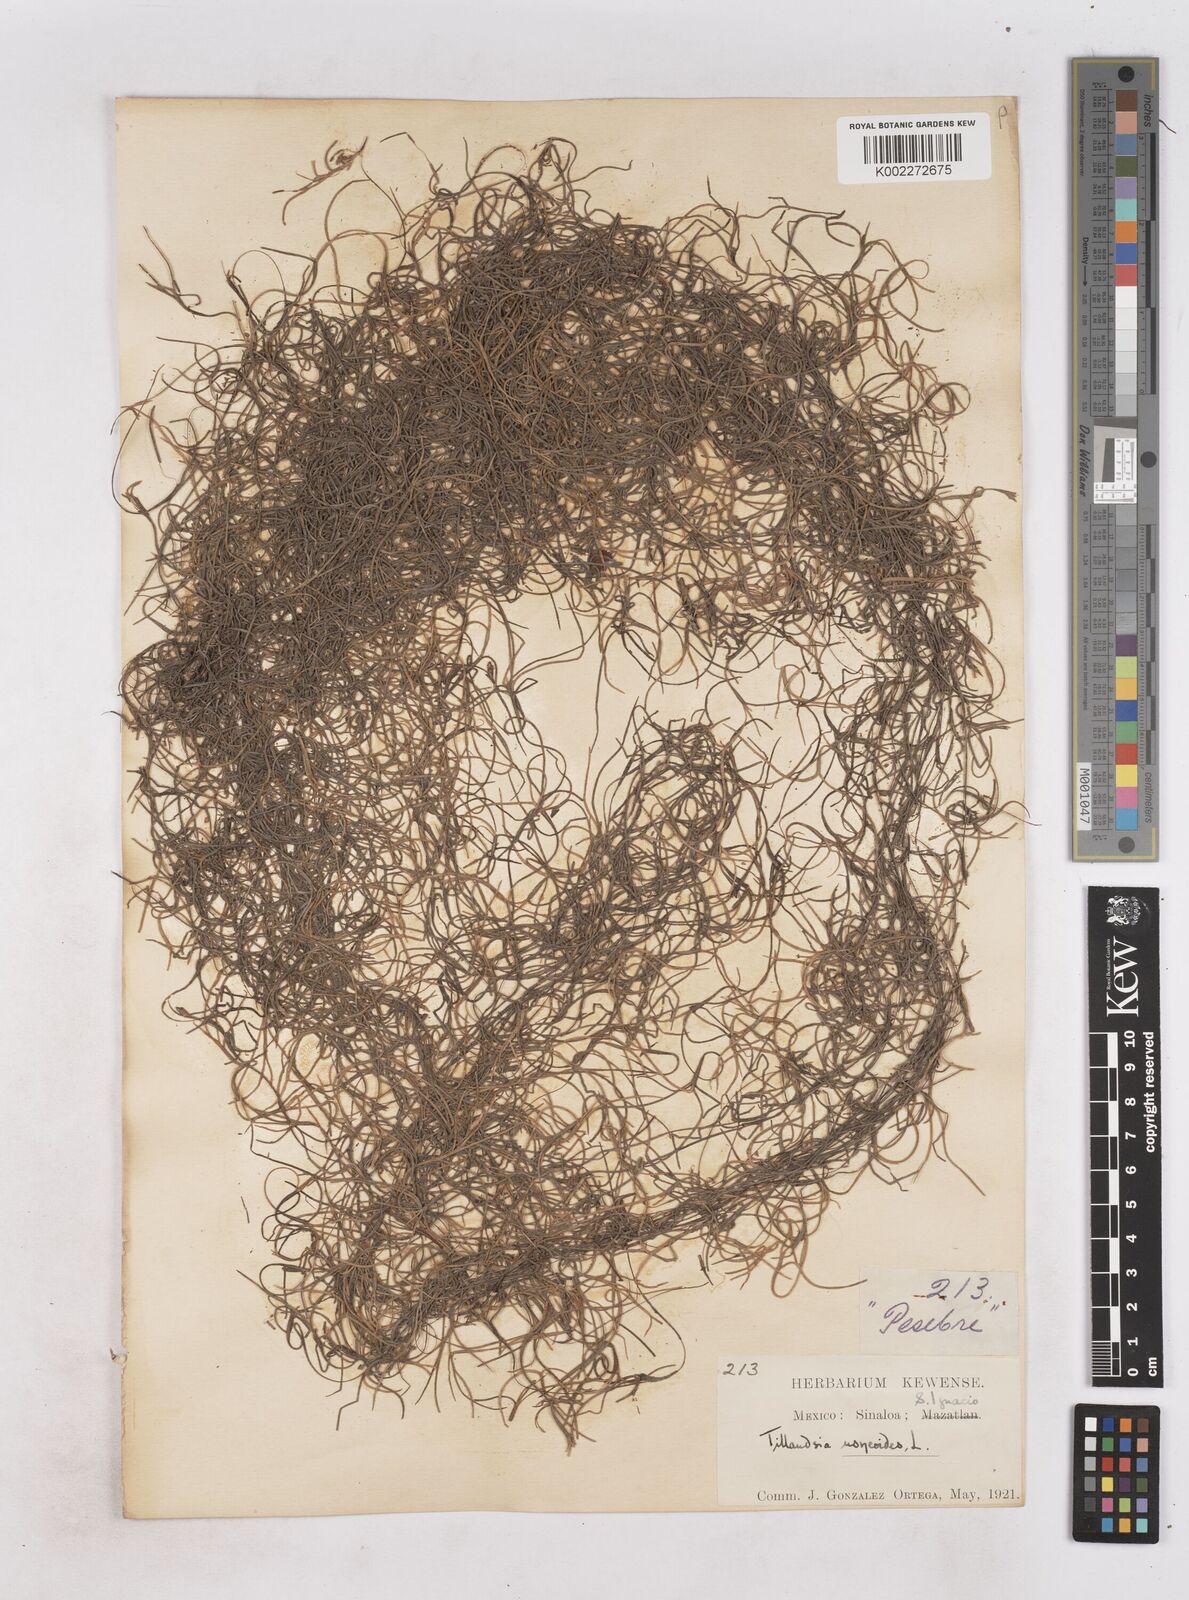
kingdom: Plantae
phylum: Tracheophyta
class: Liliopsida
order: Poales
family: Bromeliaceae
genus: Tillandsia
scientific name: Tillandsia usneoides
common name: Spanish moss
